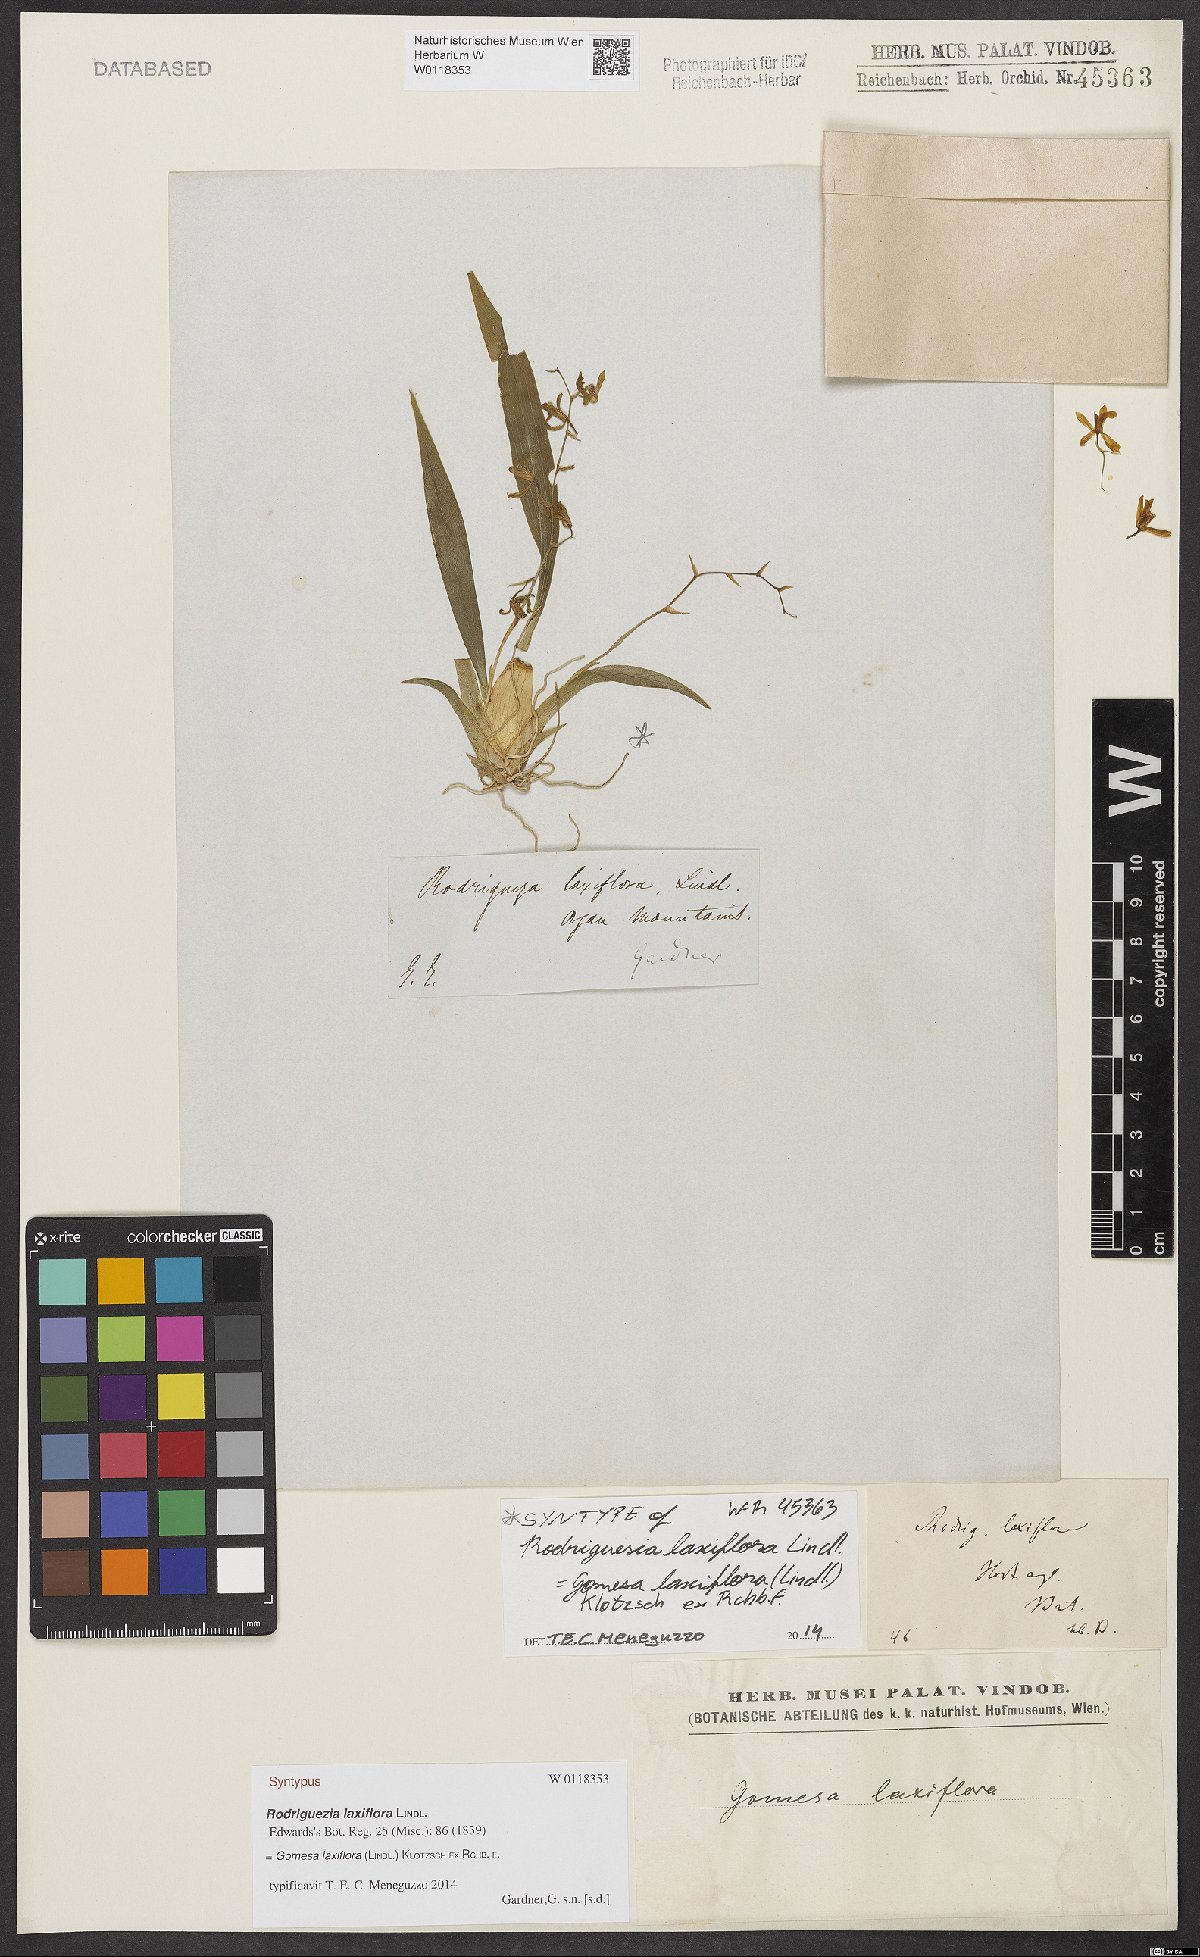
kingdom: Plantae
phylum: Tracheophyta
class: Liliopsida
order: Asparagales
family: Orchidaceae
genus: Gomesa
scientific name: Gomesa laxiflora
